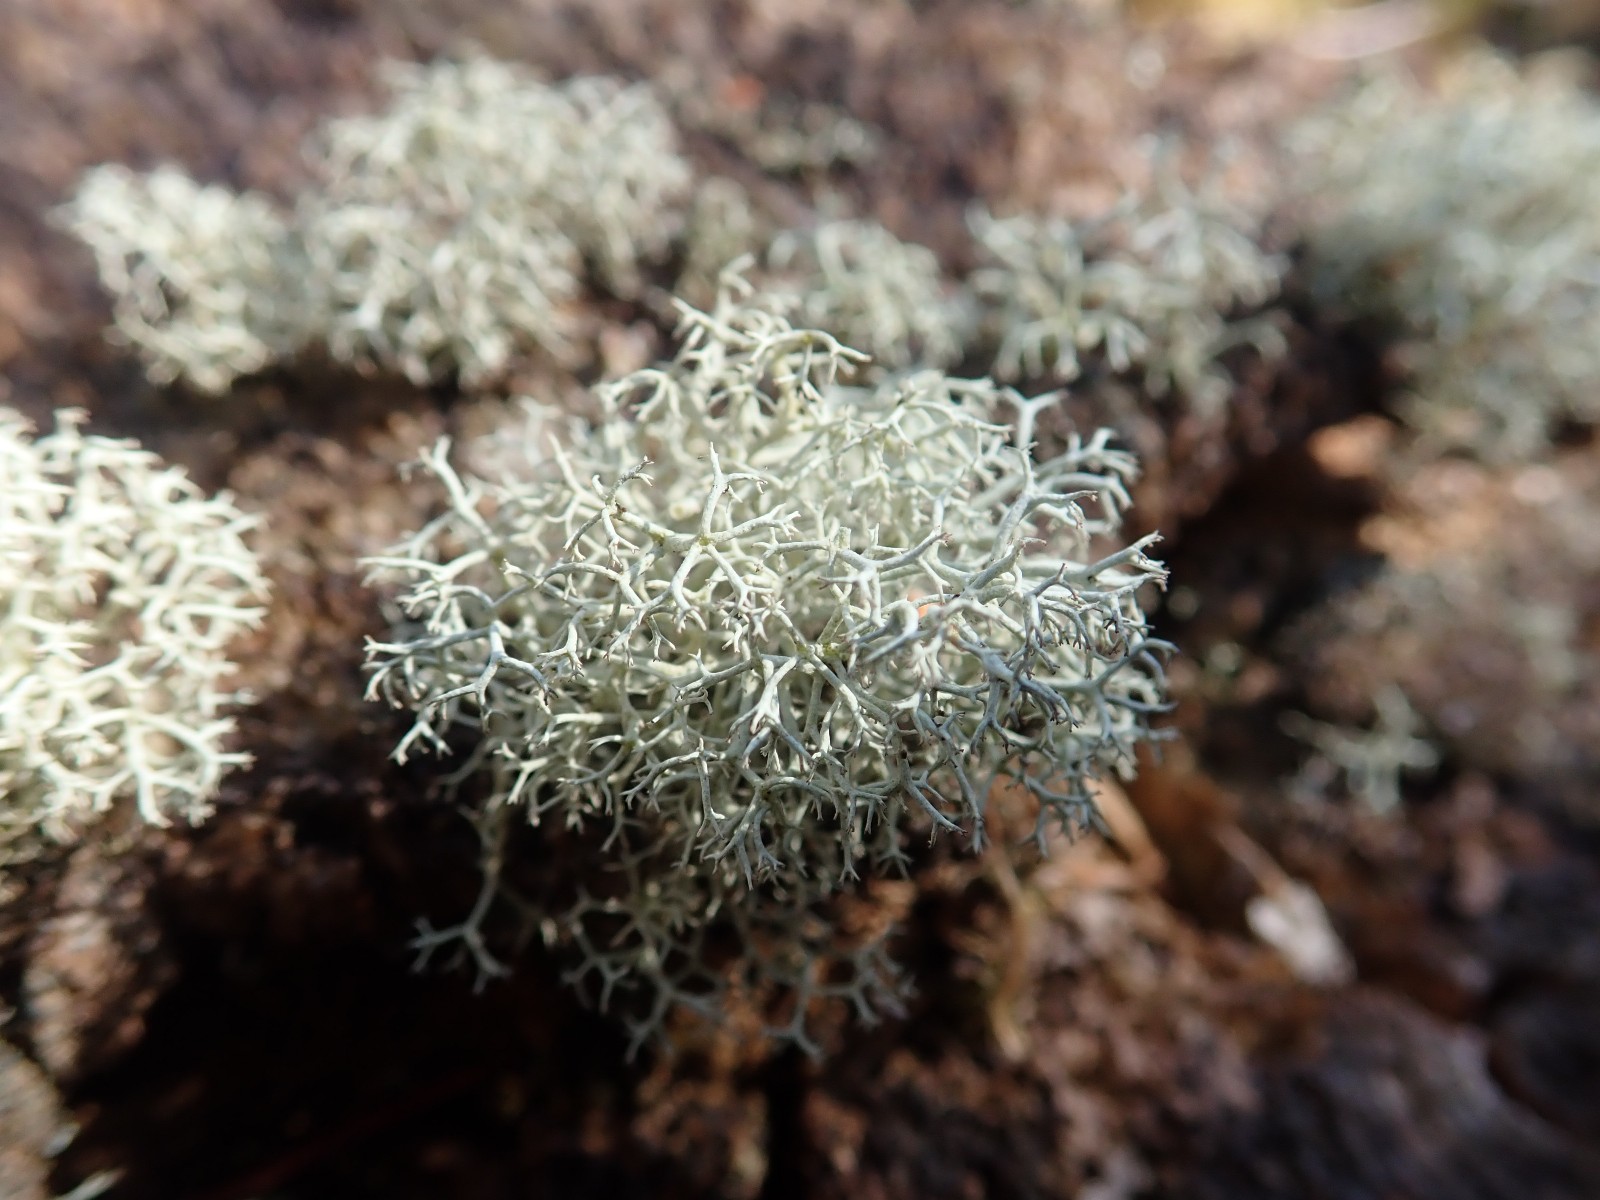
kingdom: Fungi
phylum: Ascomycota
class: Lecanoromycetes
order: Lecanorales
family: Cladoniaceae
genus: Cladonia
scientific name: Cladonia portentosa
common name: hede-rensdyrlav
